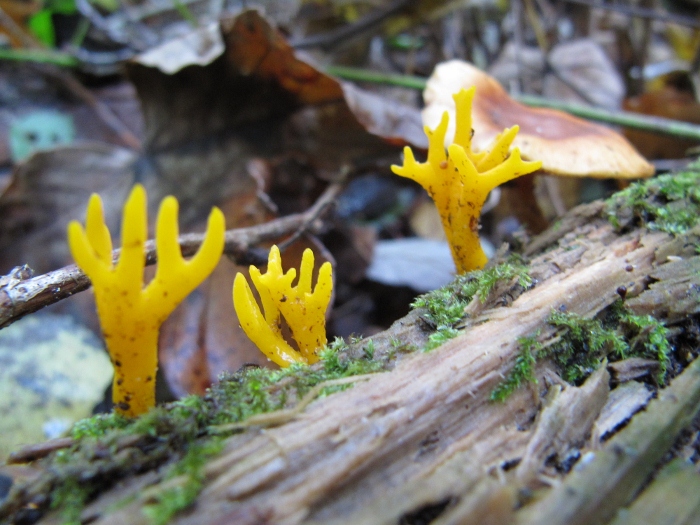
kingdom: Fungi
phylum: Basidiomycota
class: Dacrymycetes
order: Dacrymycetales
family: Dacrymycetaceae
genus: Calocera
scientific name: Calocera viscosa
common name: almindelig guldgaffel
